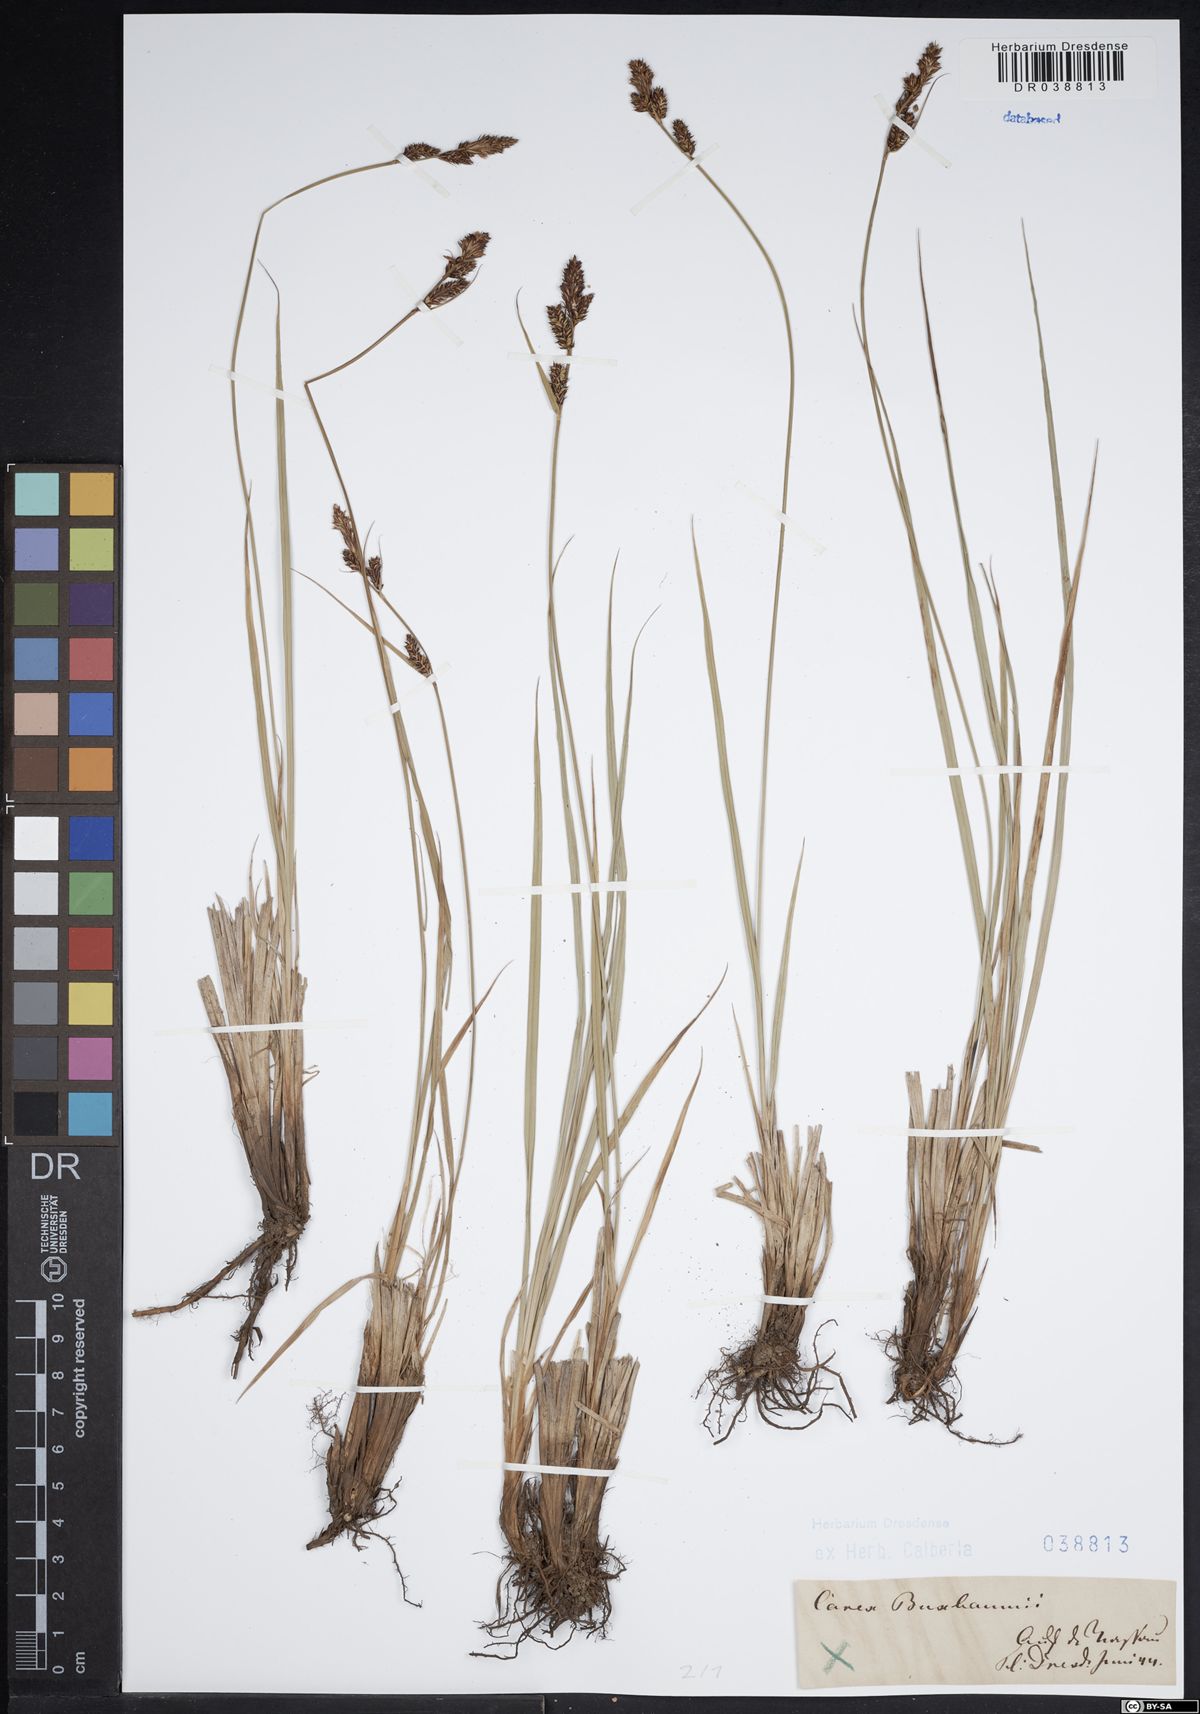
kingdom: Plantae
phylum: Tracheophyta
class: Liliopsida
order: Poales
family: Cyperaceae
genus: Carex
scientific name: Carex buxbaumii
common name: Club sedge
